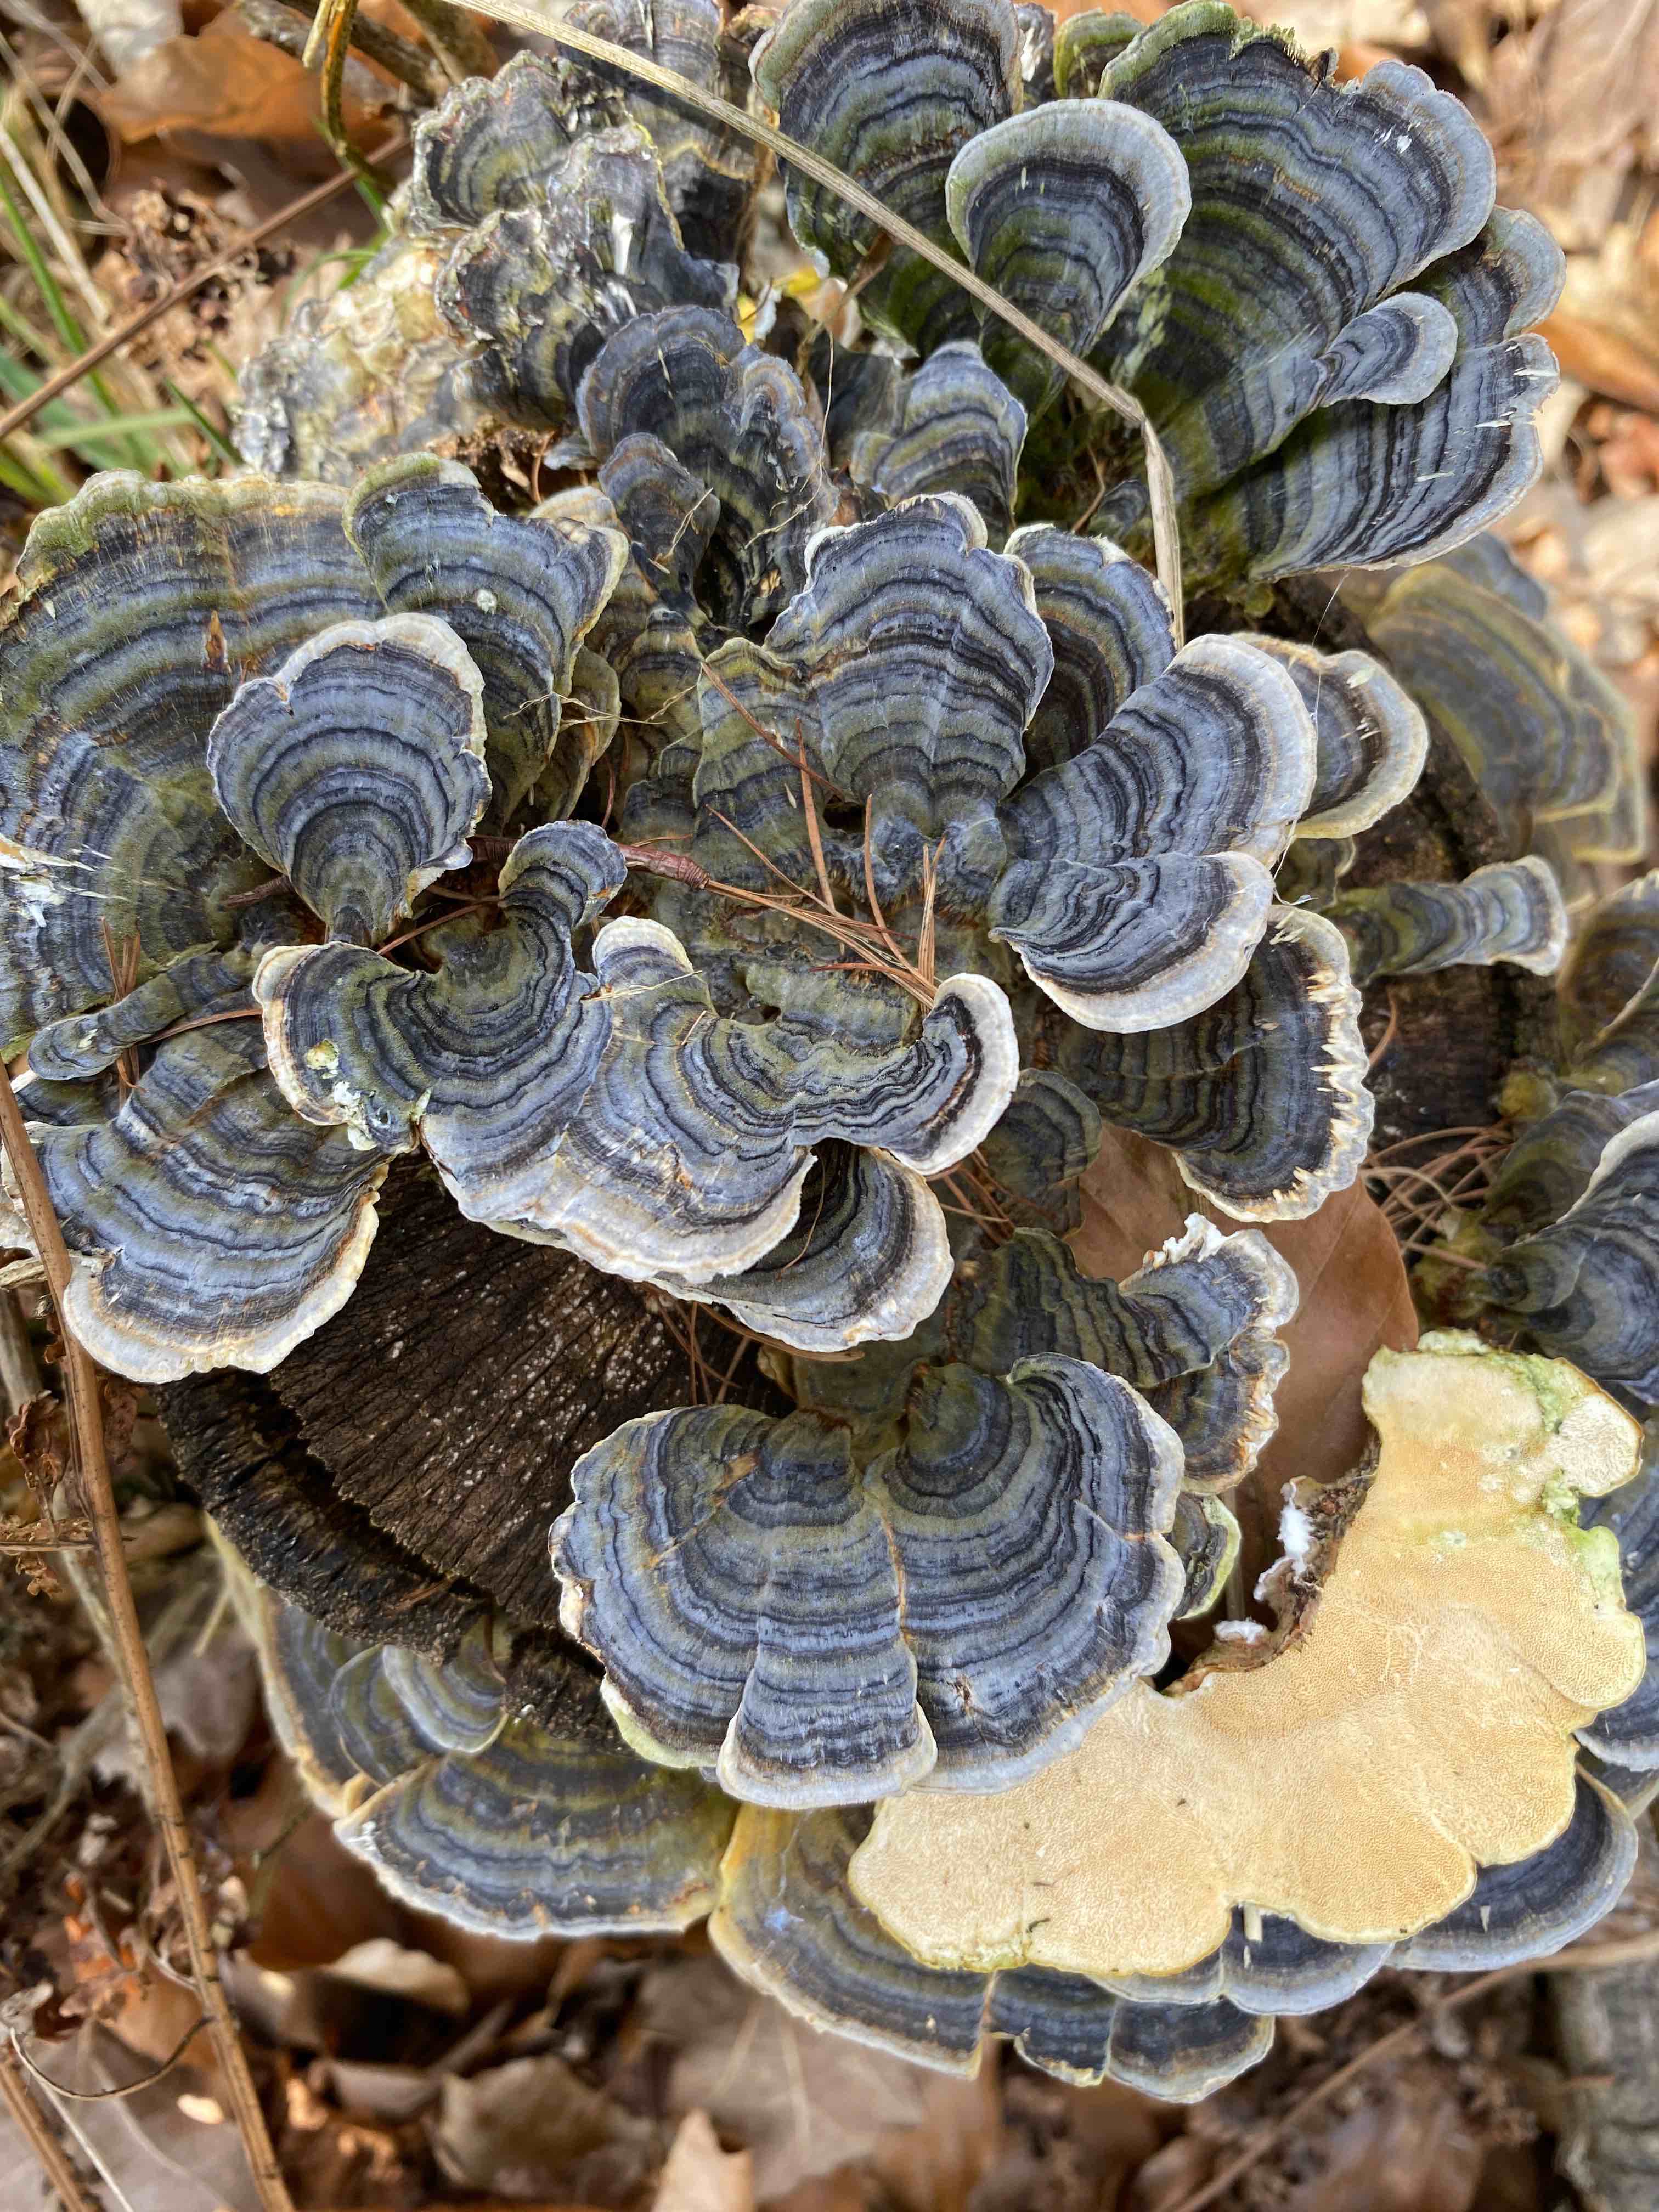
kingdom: Fungi
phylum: Basidiomycota
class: Agaricomycetes
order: Polyporales
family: Polyporaceae
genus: Trametes
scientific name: Trametes versicolor
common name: broget læderporesvamp
